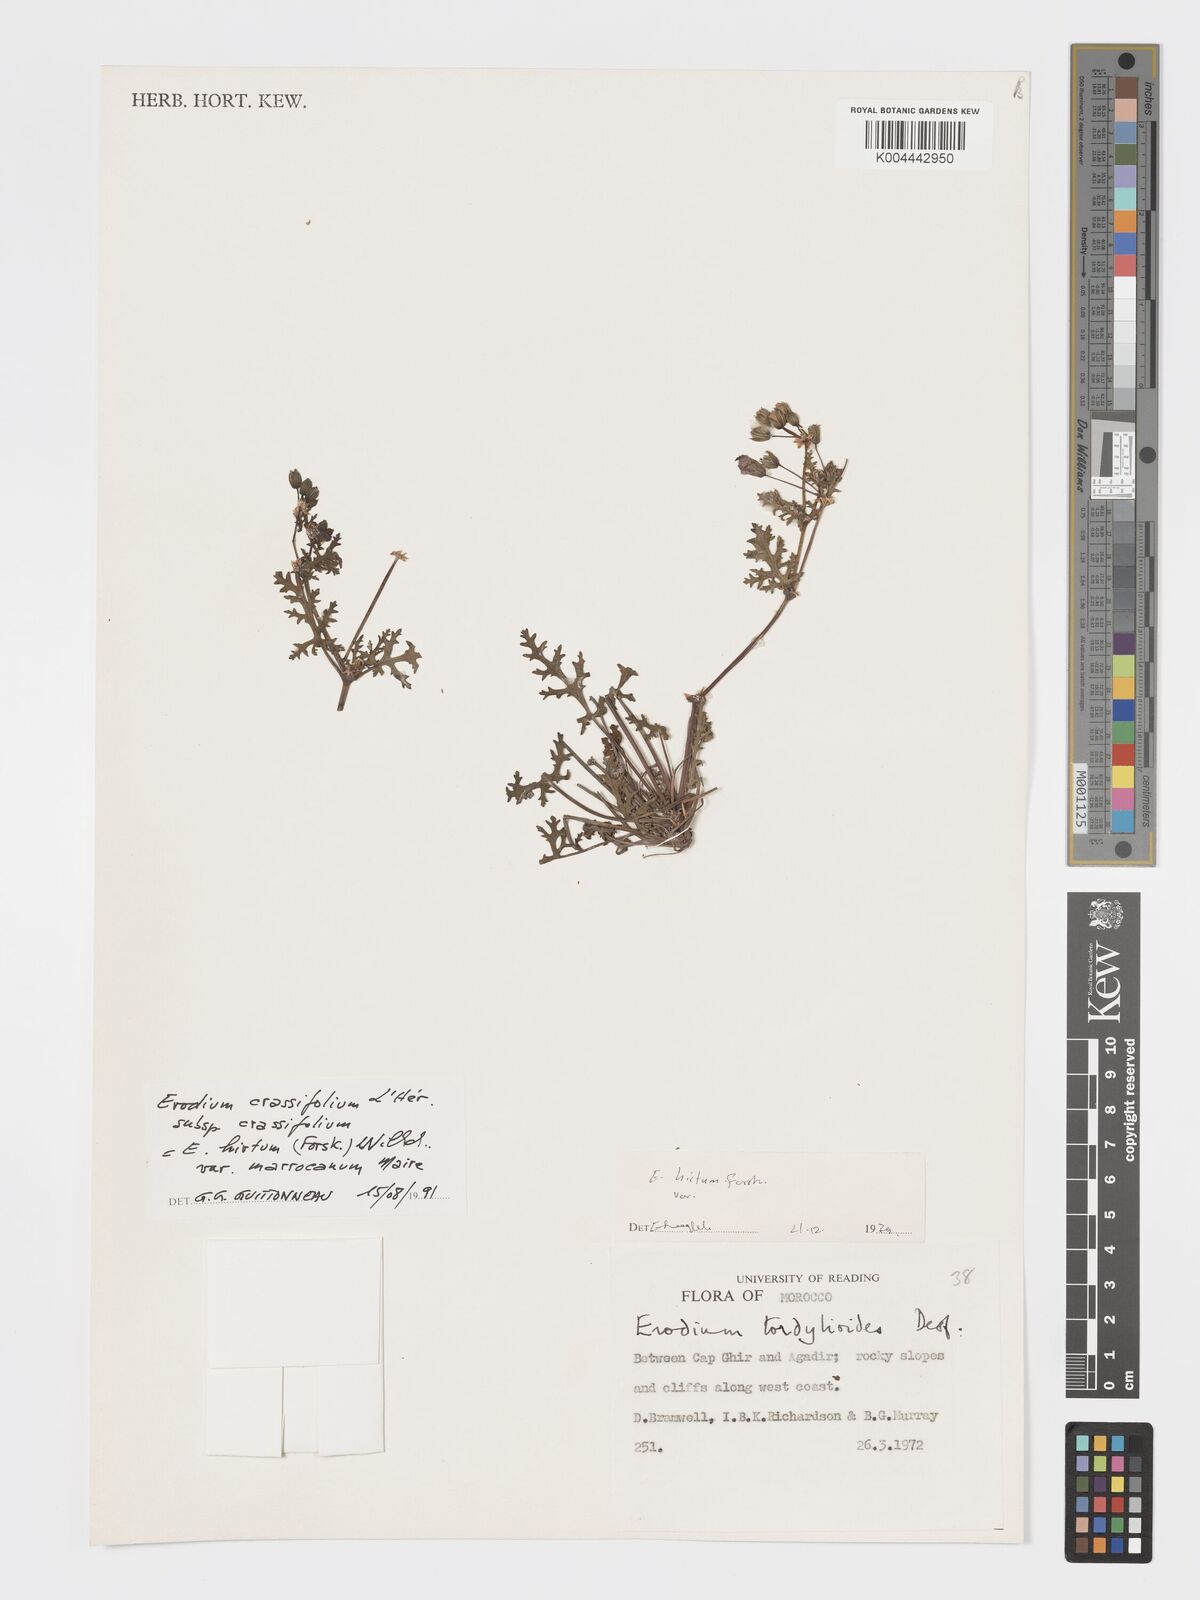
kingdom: Plantae
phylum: Tracheophyta
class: Magnoliopsida
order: Geraniales
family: Geraniaceae
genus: Erodium
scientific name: Erodium crassifolium
